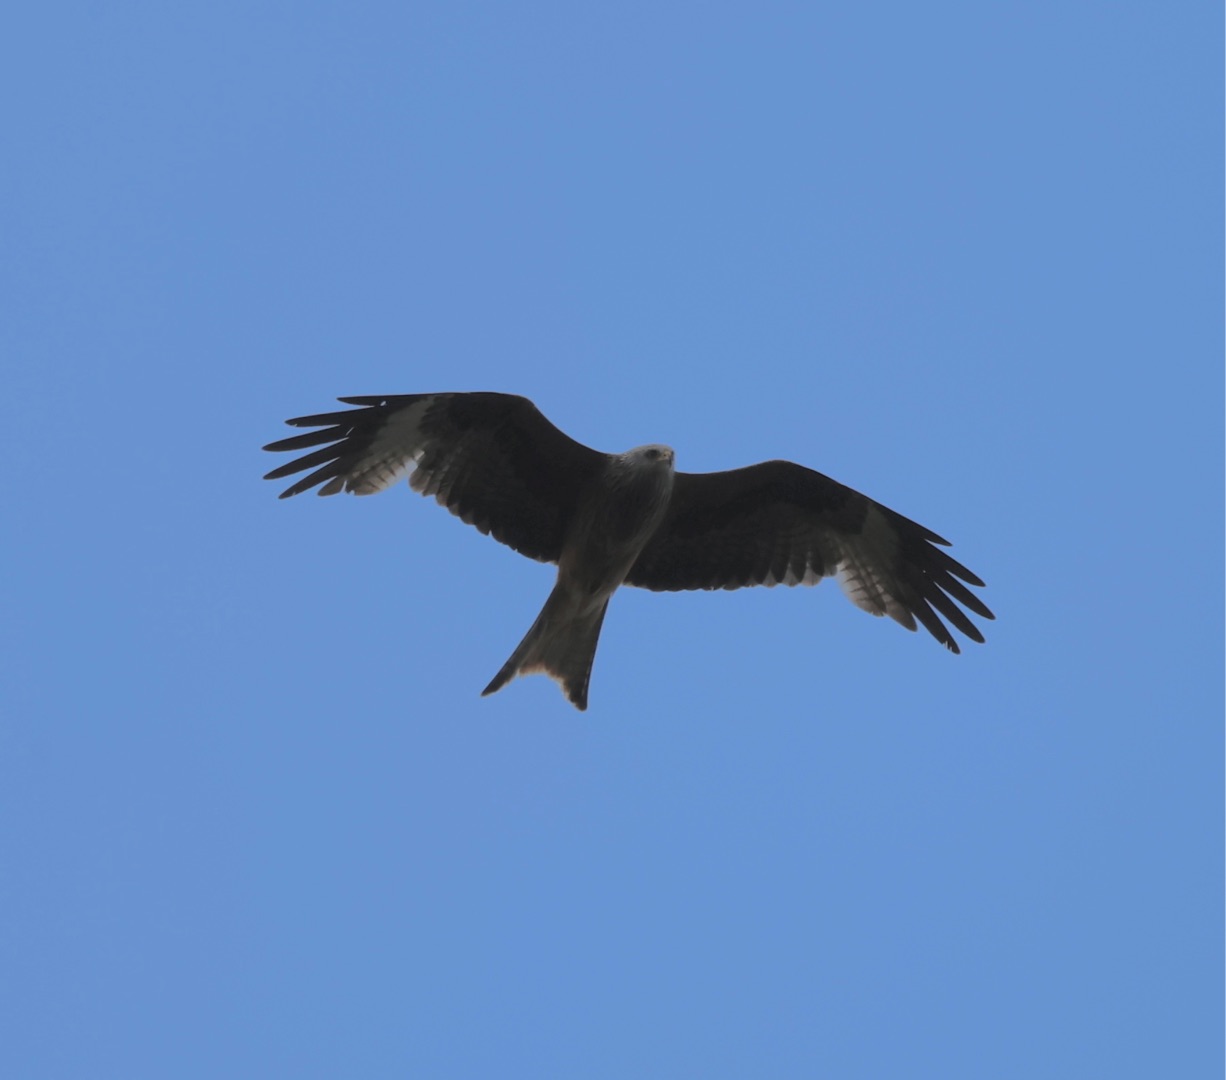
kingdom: Animalia
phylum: Chordata
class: Aves
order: Accipitriformes
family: Accipitridae
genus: Milvus
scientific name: Milvus milvus
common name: Rød glente
